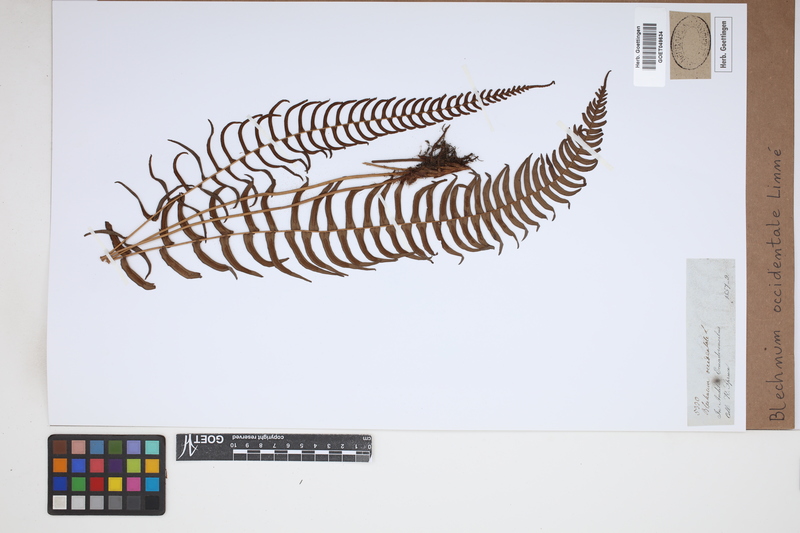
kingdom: Plantae
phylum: Tracheophyta
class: Polypodiopsida
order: Polypodiales
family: Blechnaceae
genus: Blechnum
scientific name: Blechnum occidentale
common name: Hammock fern
